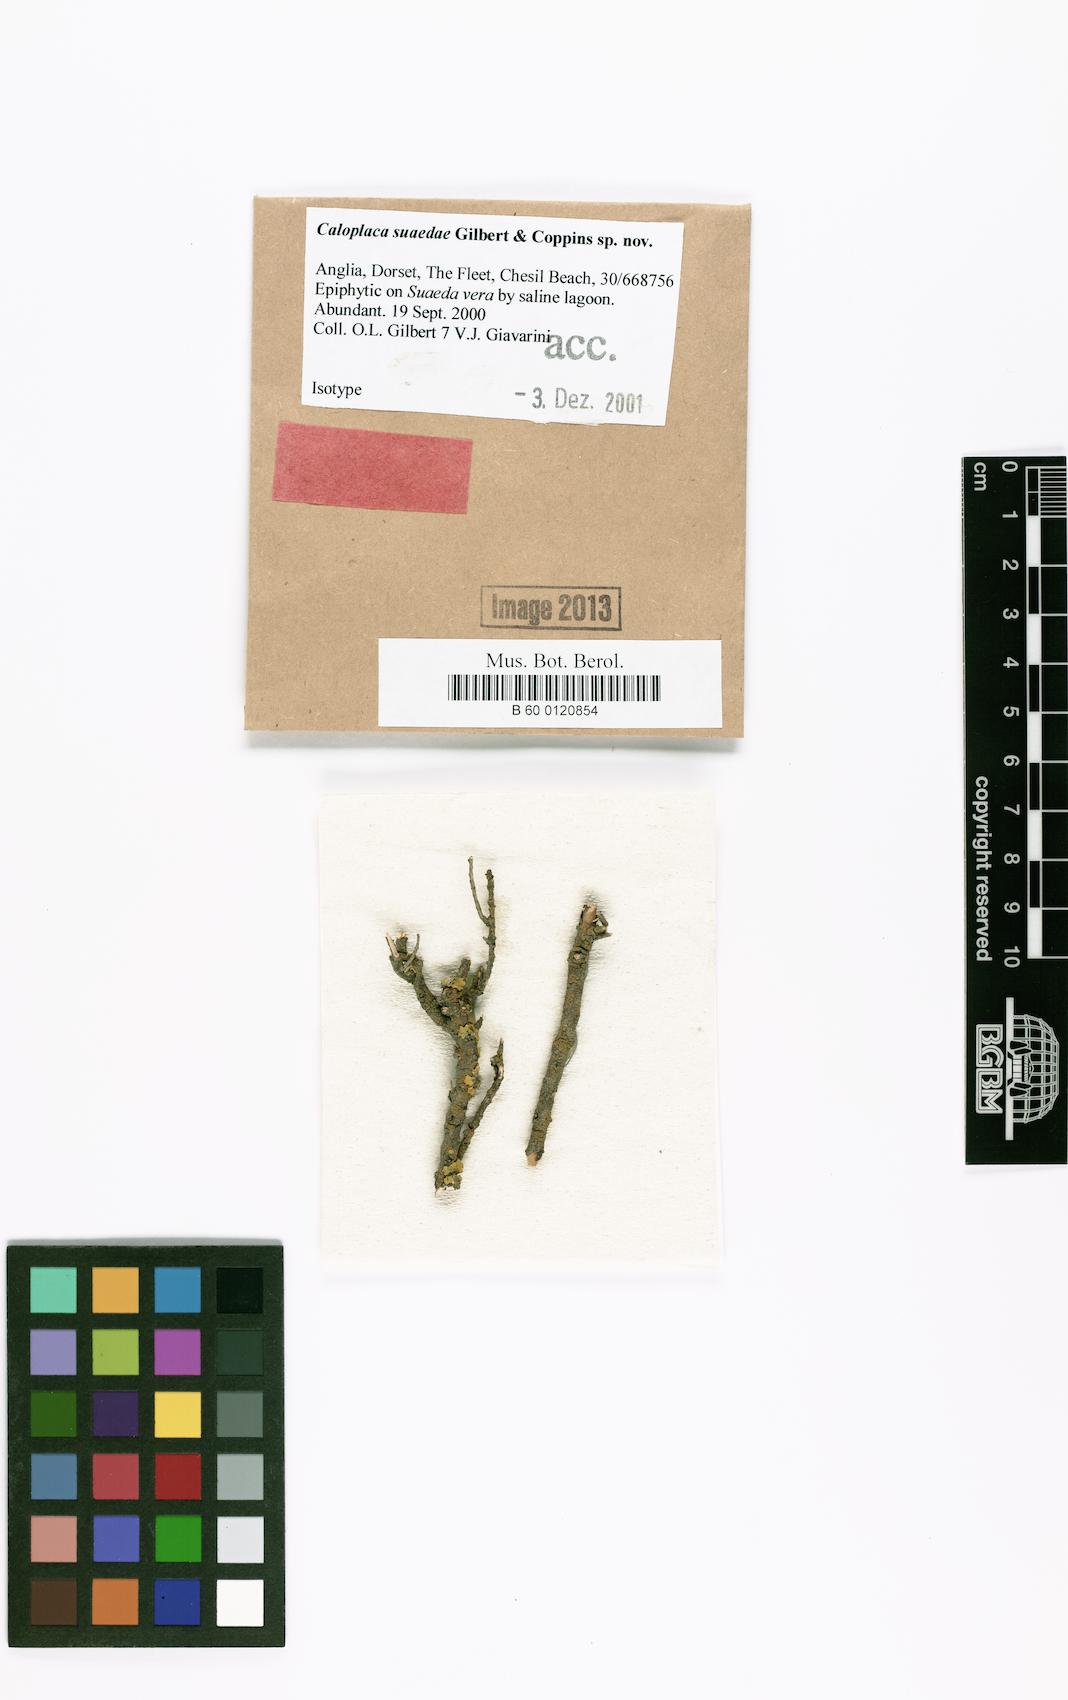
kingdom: Fungi
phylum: Ascomycota
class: Lecanoromycetes
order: Teloschistales
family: Teloschistaceae
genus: Haloplaca
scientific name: Haloplaca suaedae
